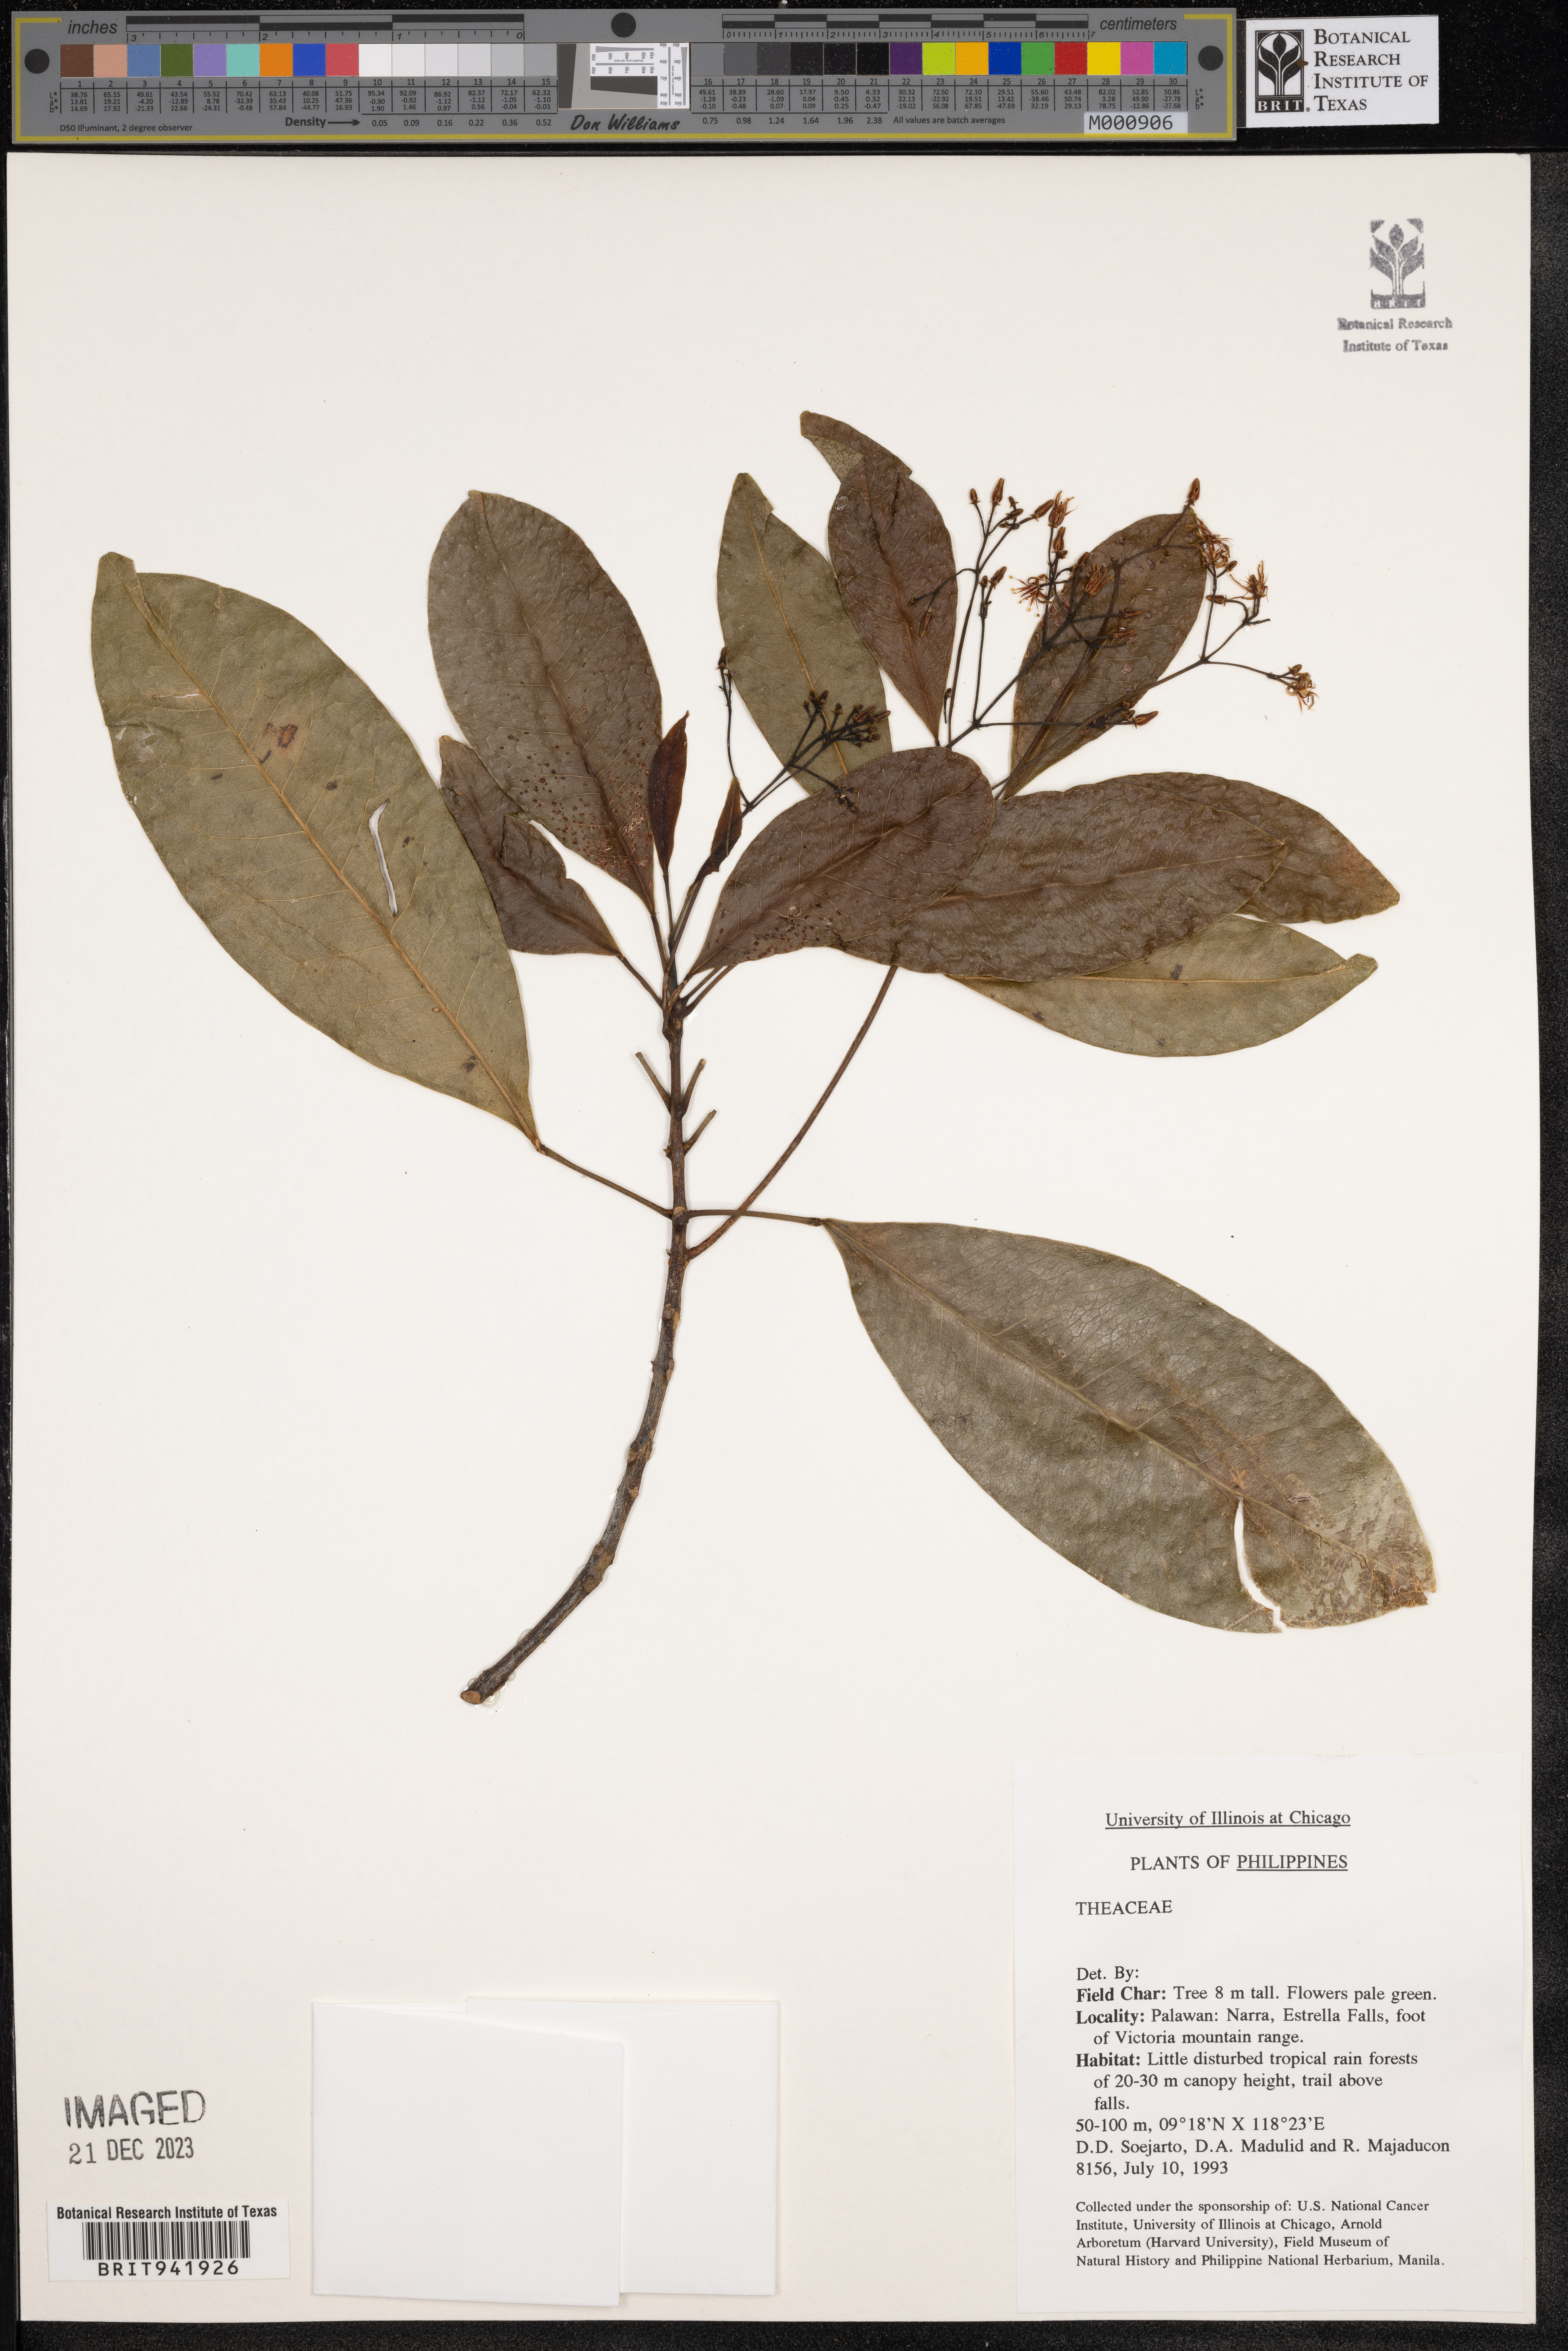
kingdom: Plantae
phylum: Tracheophyta
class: Magnoliopsida
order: Ericales
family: Theaceae
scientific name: Theaceae
